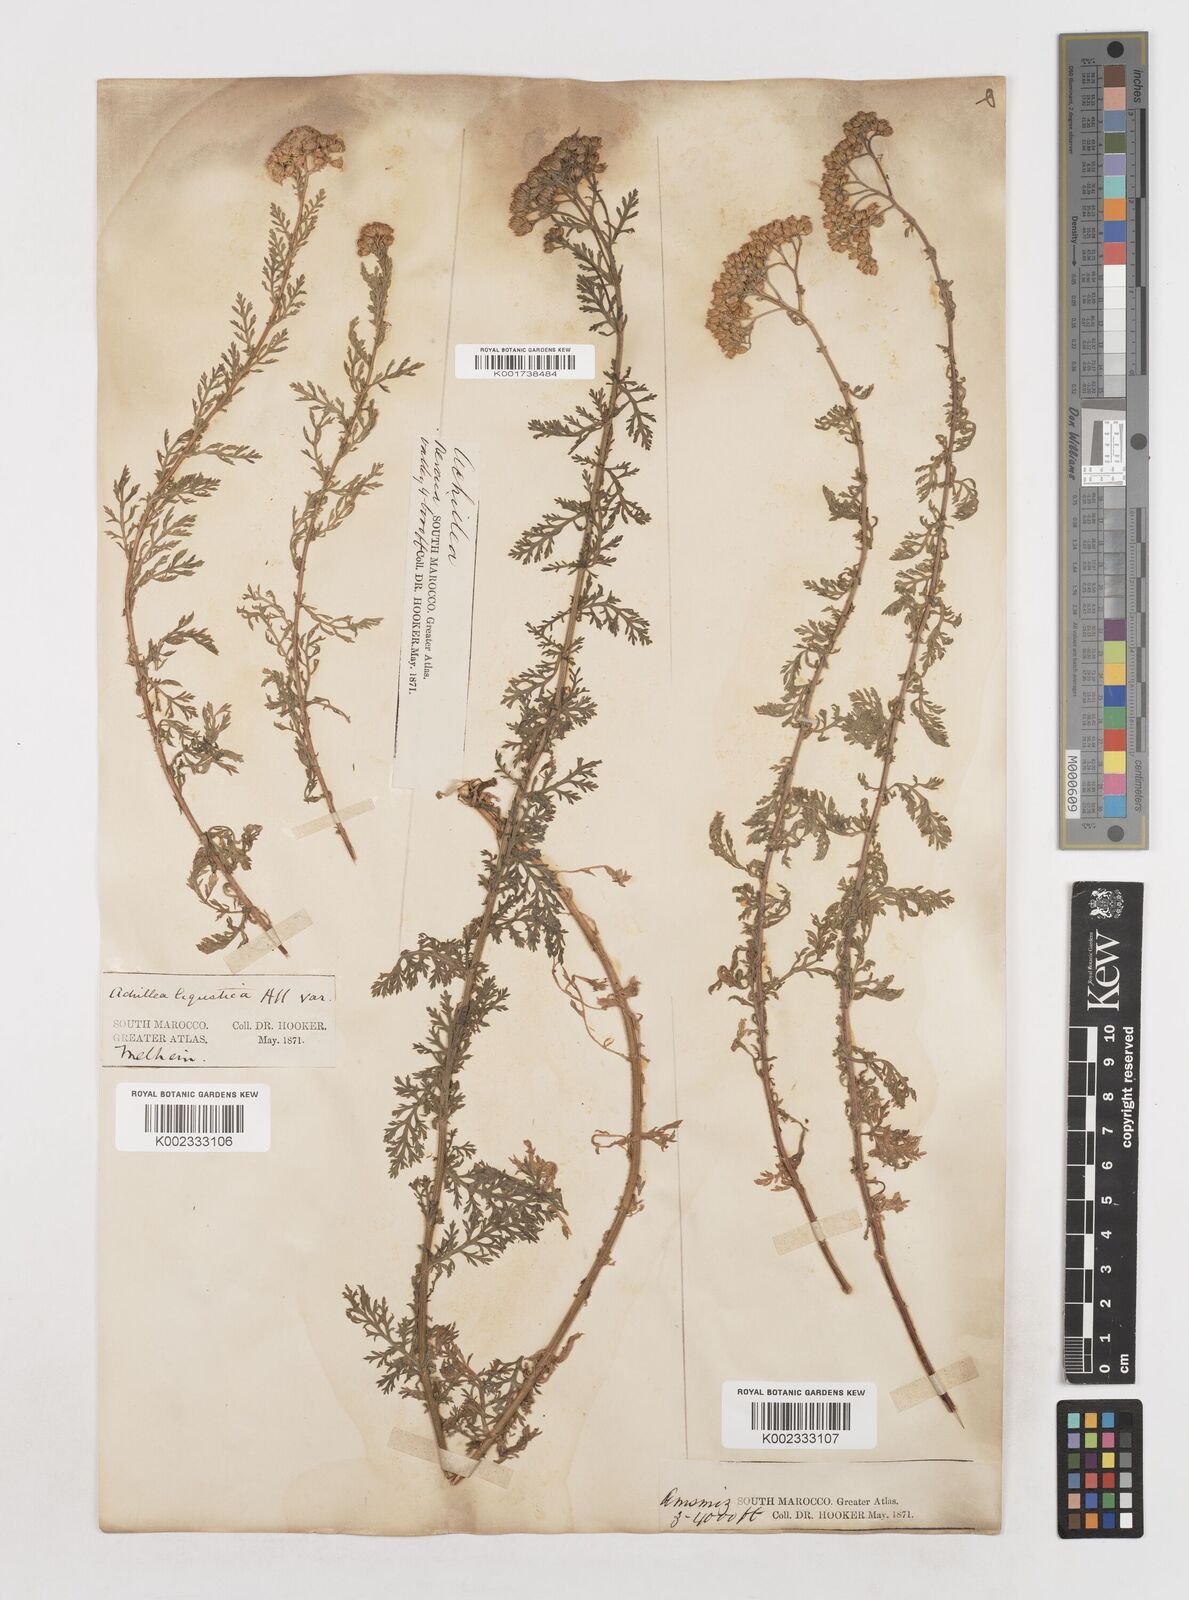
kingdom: Plantae
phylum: Tracheophyta
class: Magnoliopsida
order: Asterales
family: Asteraceae
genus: Achillea
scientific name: Achillea ligustica
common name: Southern yarrow
